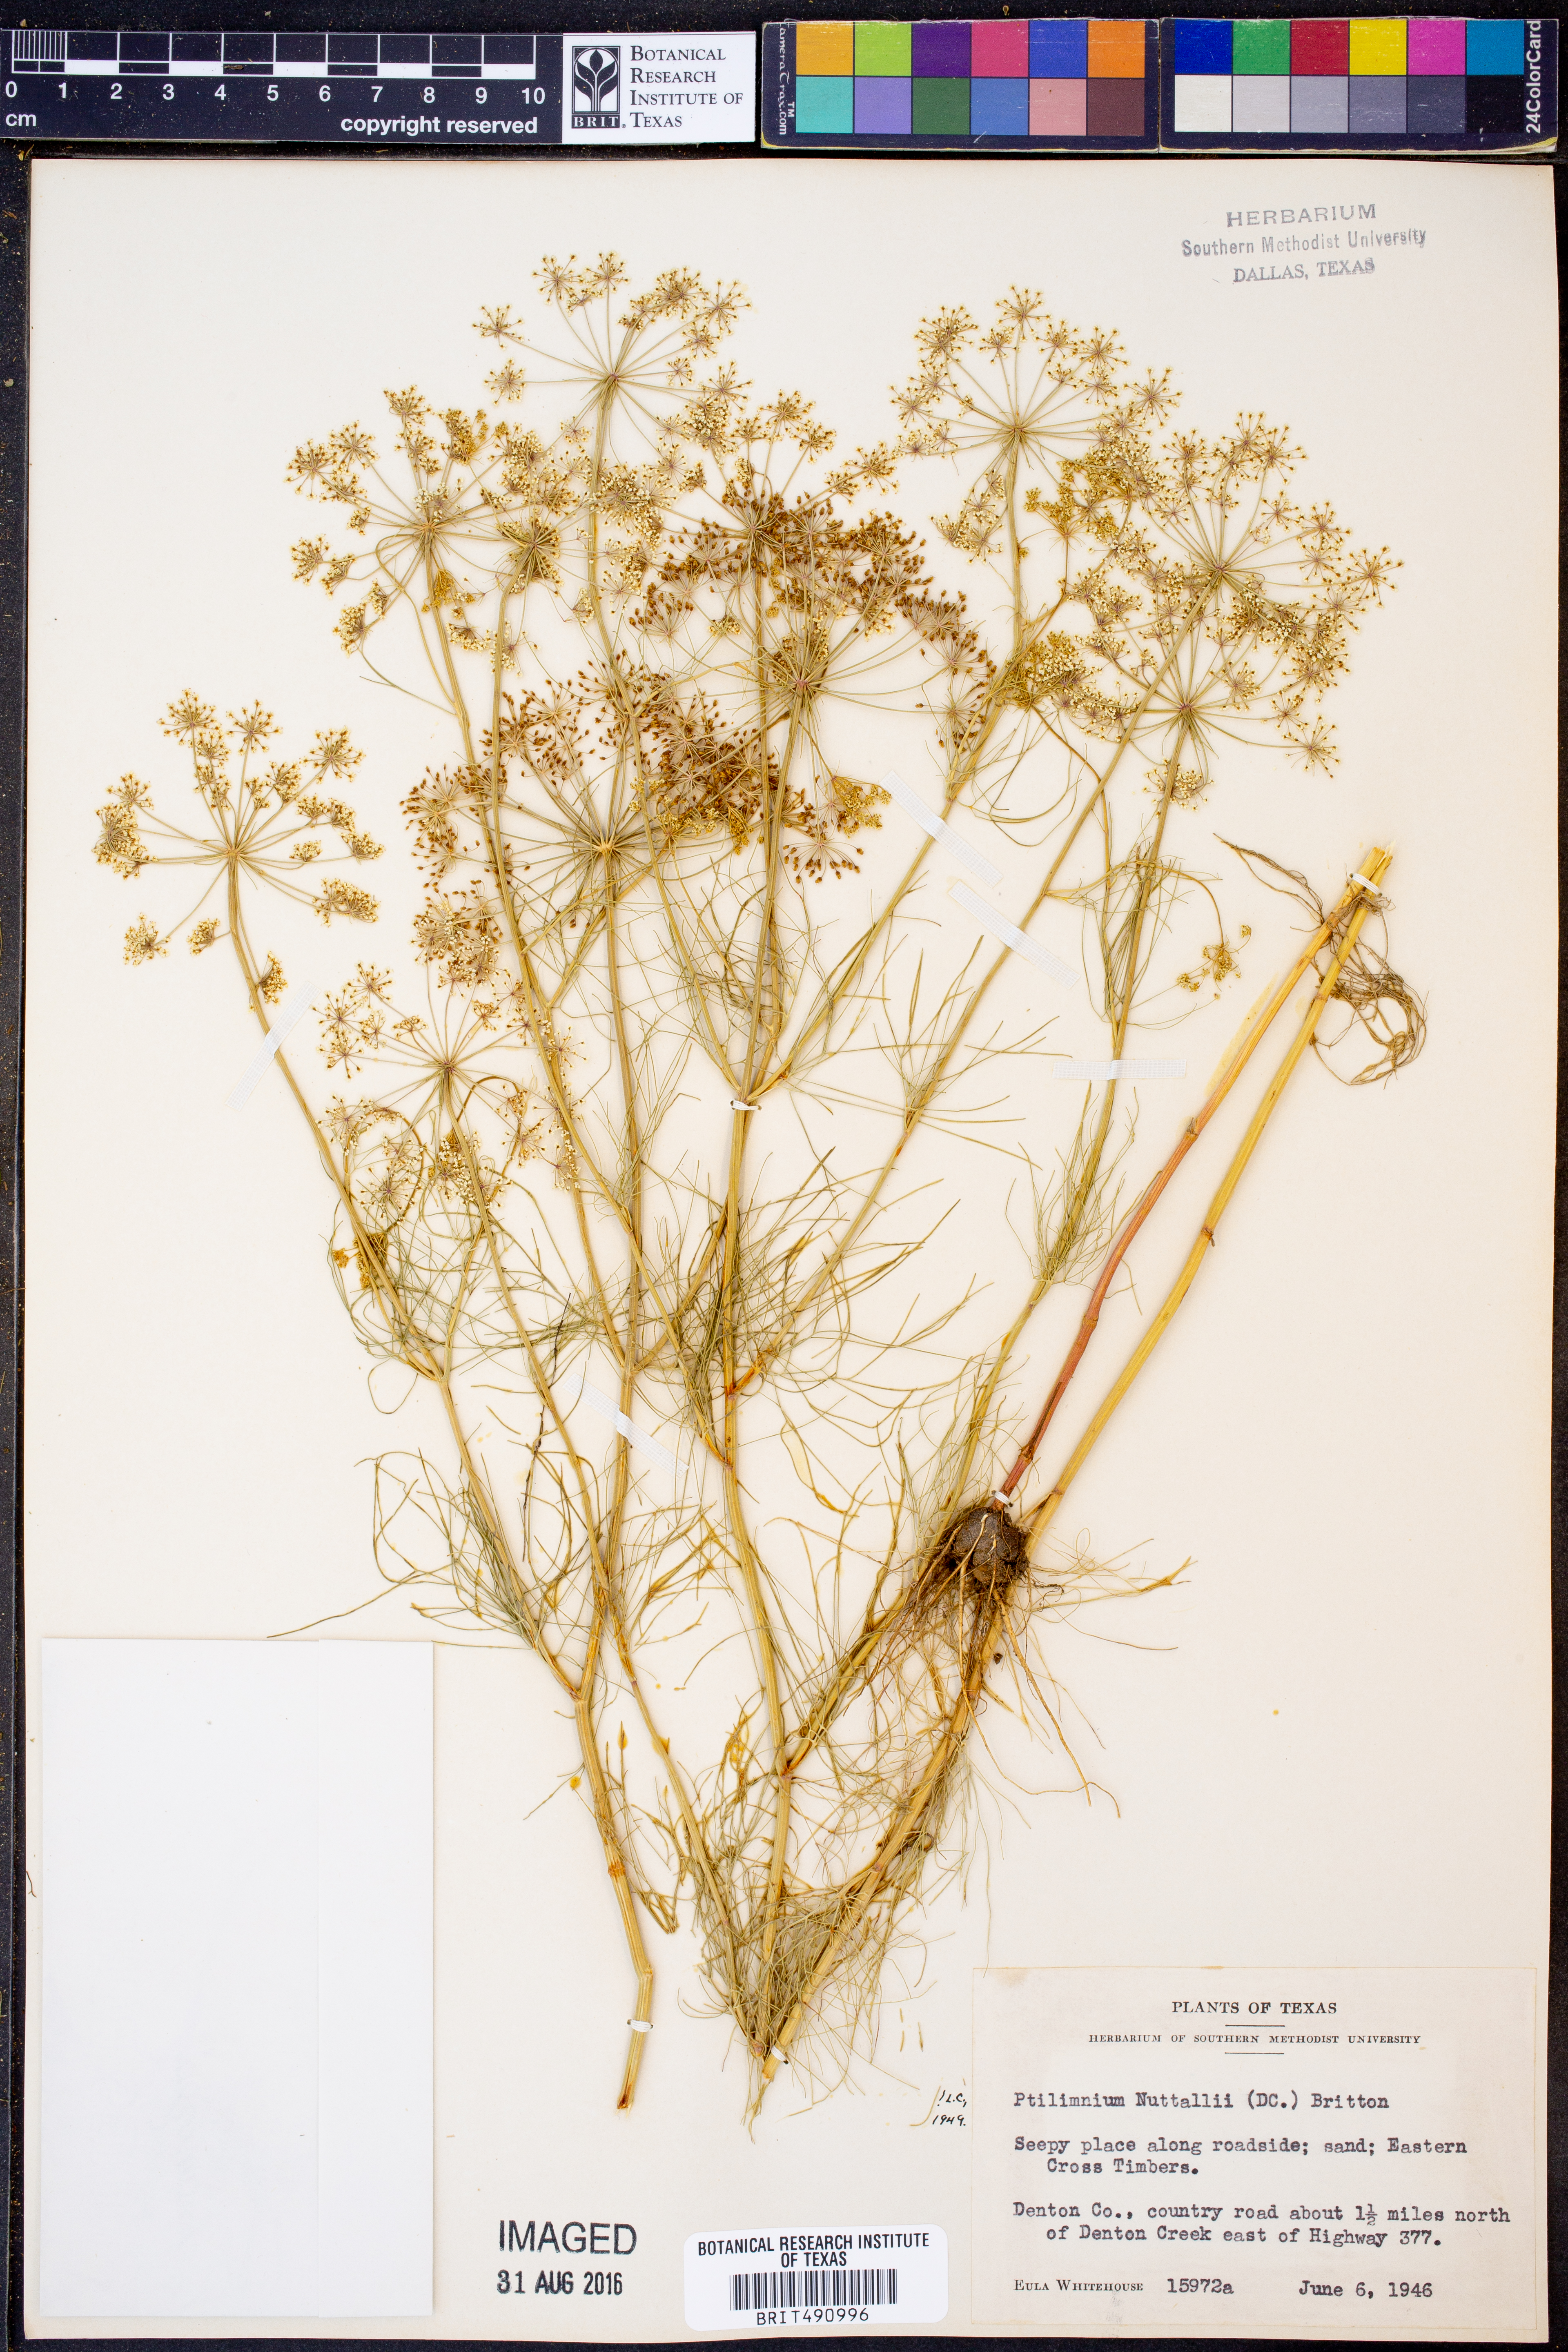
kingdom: Plantae
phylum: Tracheophyta
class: Magnoliopsida
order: Apiales
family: Apiaceae
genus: Ptilimnium
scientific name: Ptilimnium nuttallii
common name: Ozark bishop's-weed
